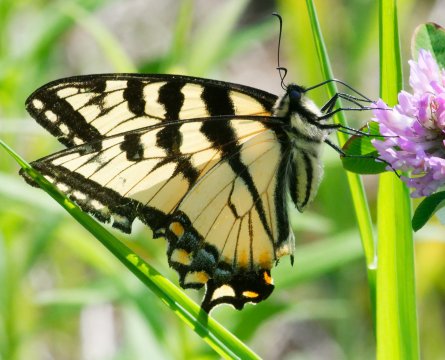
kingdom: Animalia
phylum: Arthropoda
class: Insecta
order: Lepidoptera
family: Papilionidae
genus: Pterourus
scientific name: Pterourus canadensis
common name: Canadian Tiger Swallowtail
